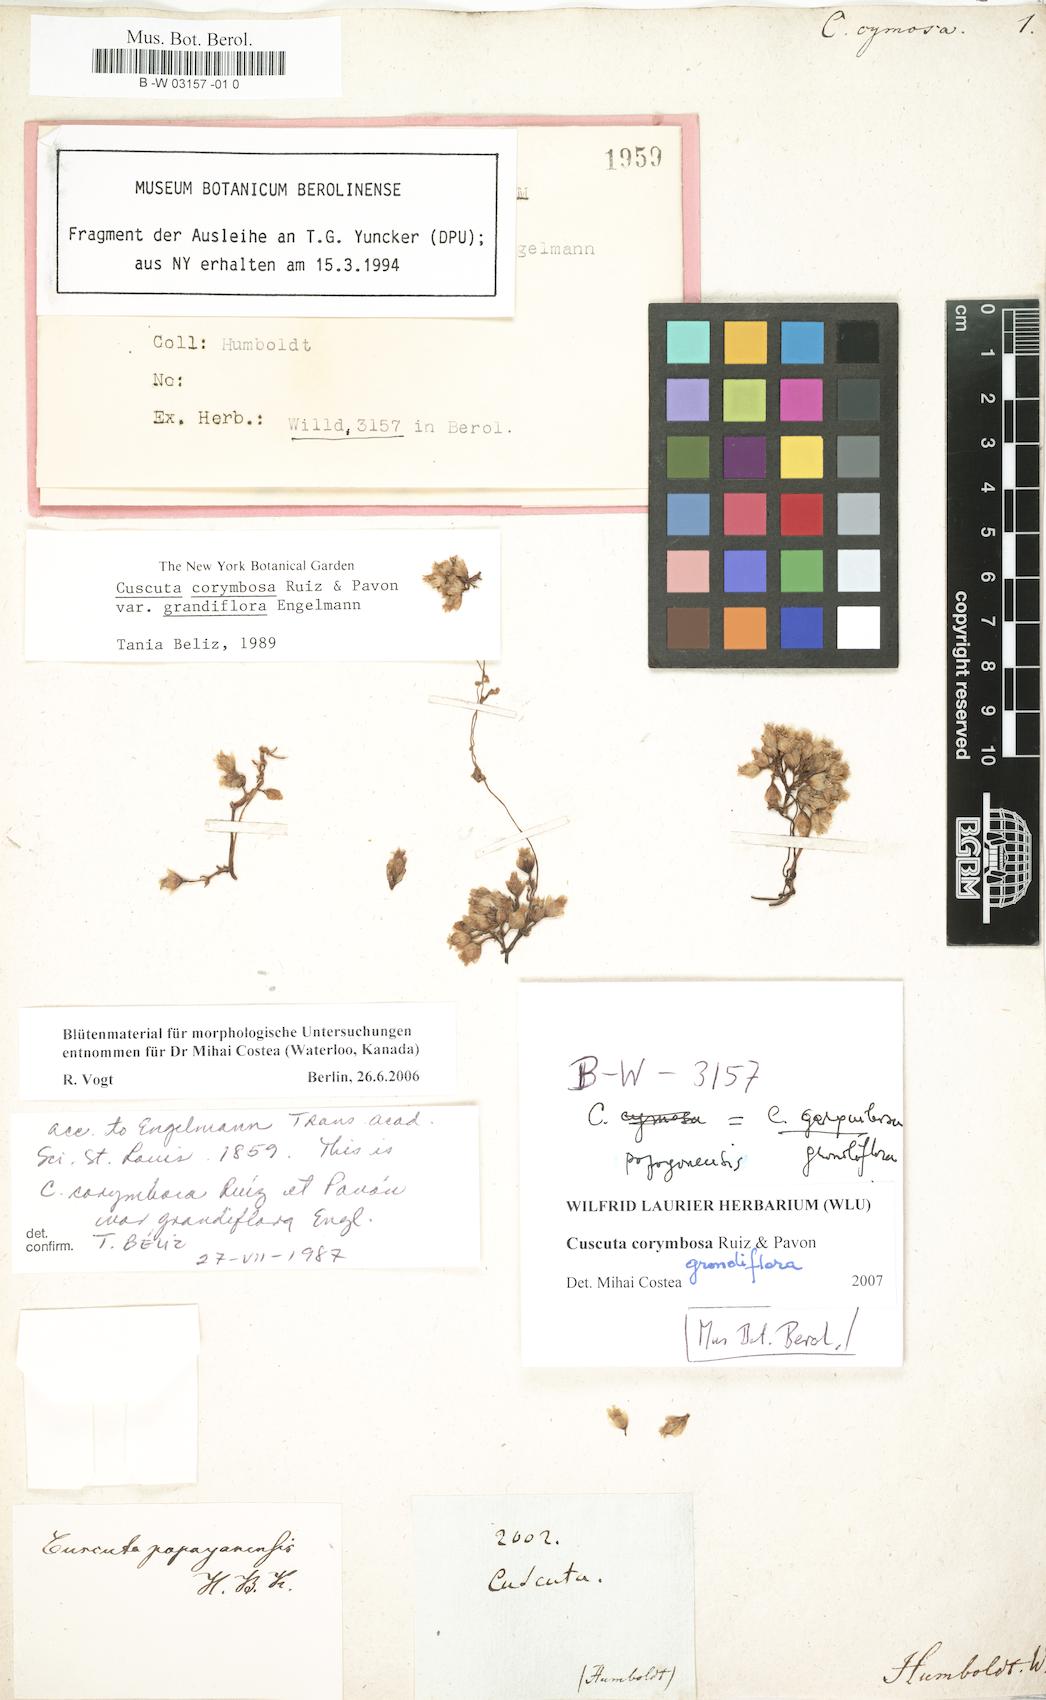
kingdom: Plantae
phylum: Tracheophyta
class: Magnoliopsida
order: Solanales
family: Convolvulaceae
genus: Cuscuta
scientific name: Cuscuta corymbosa
